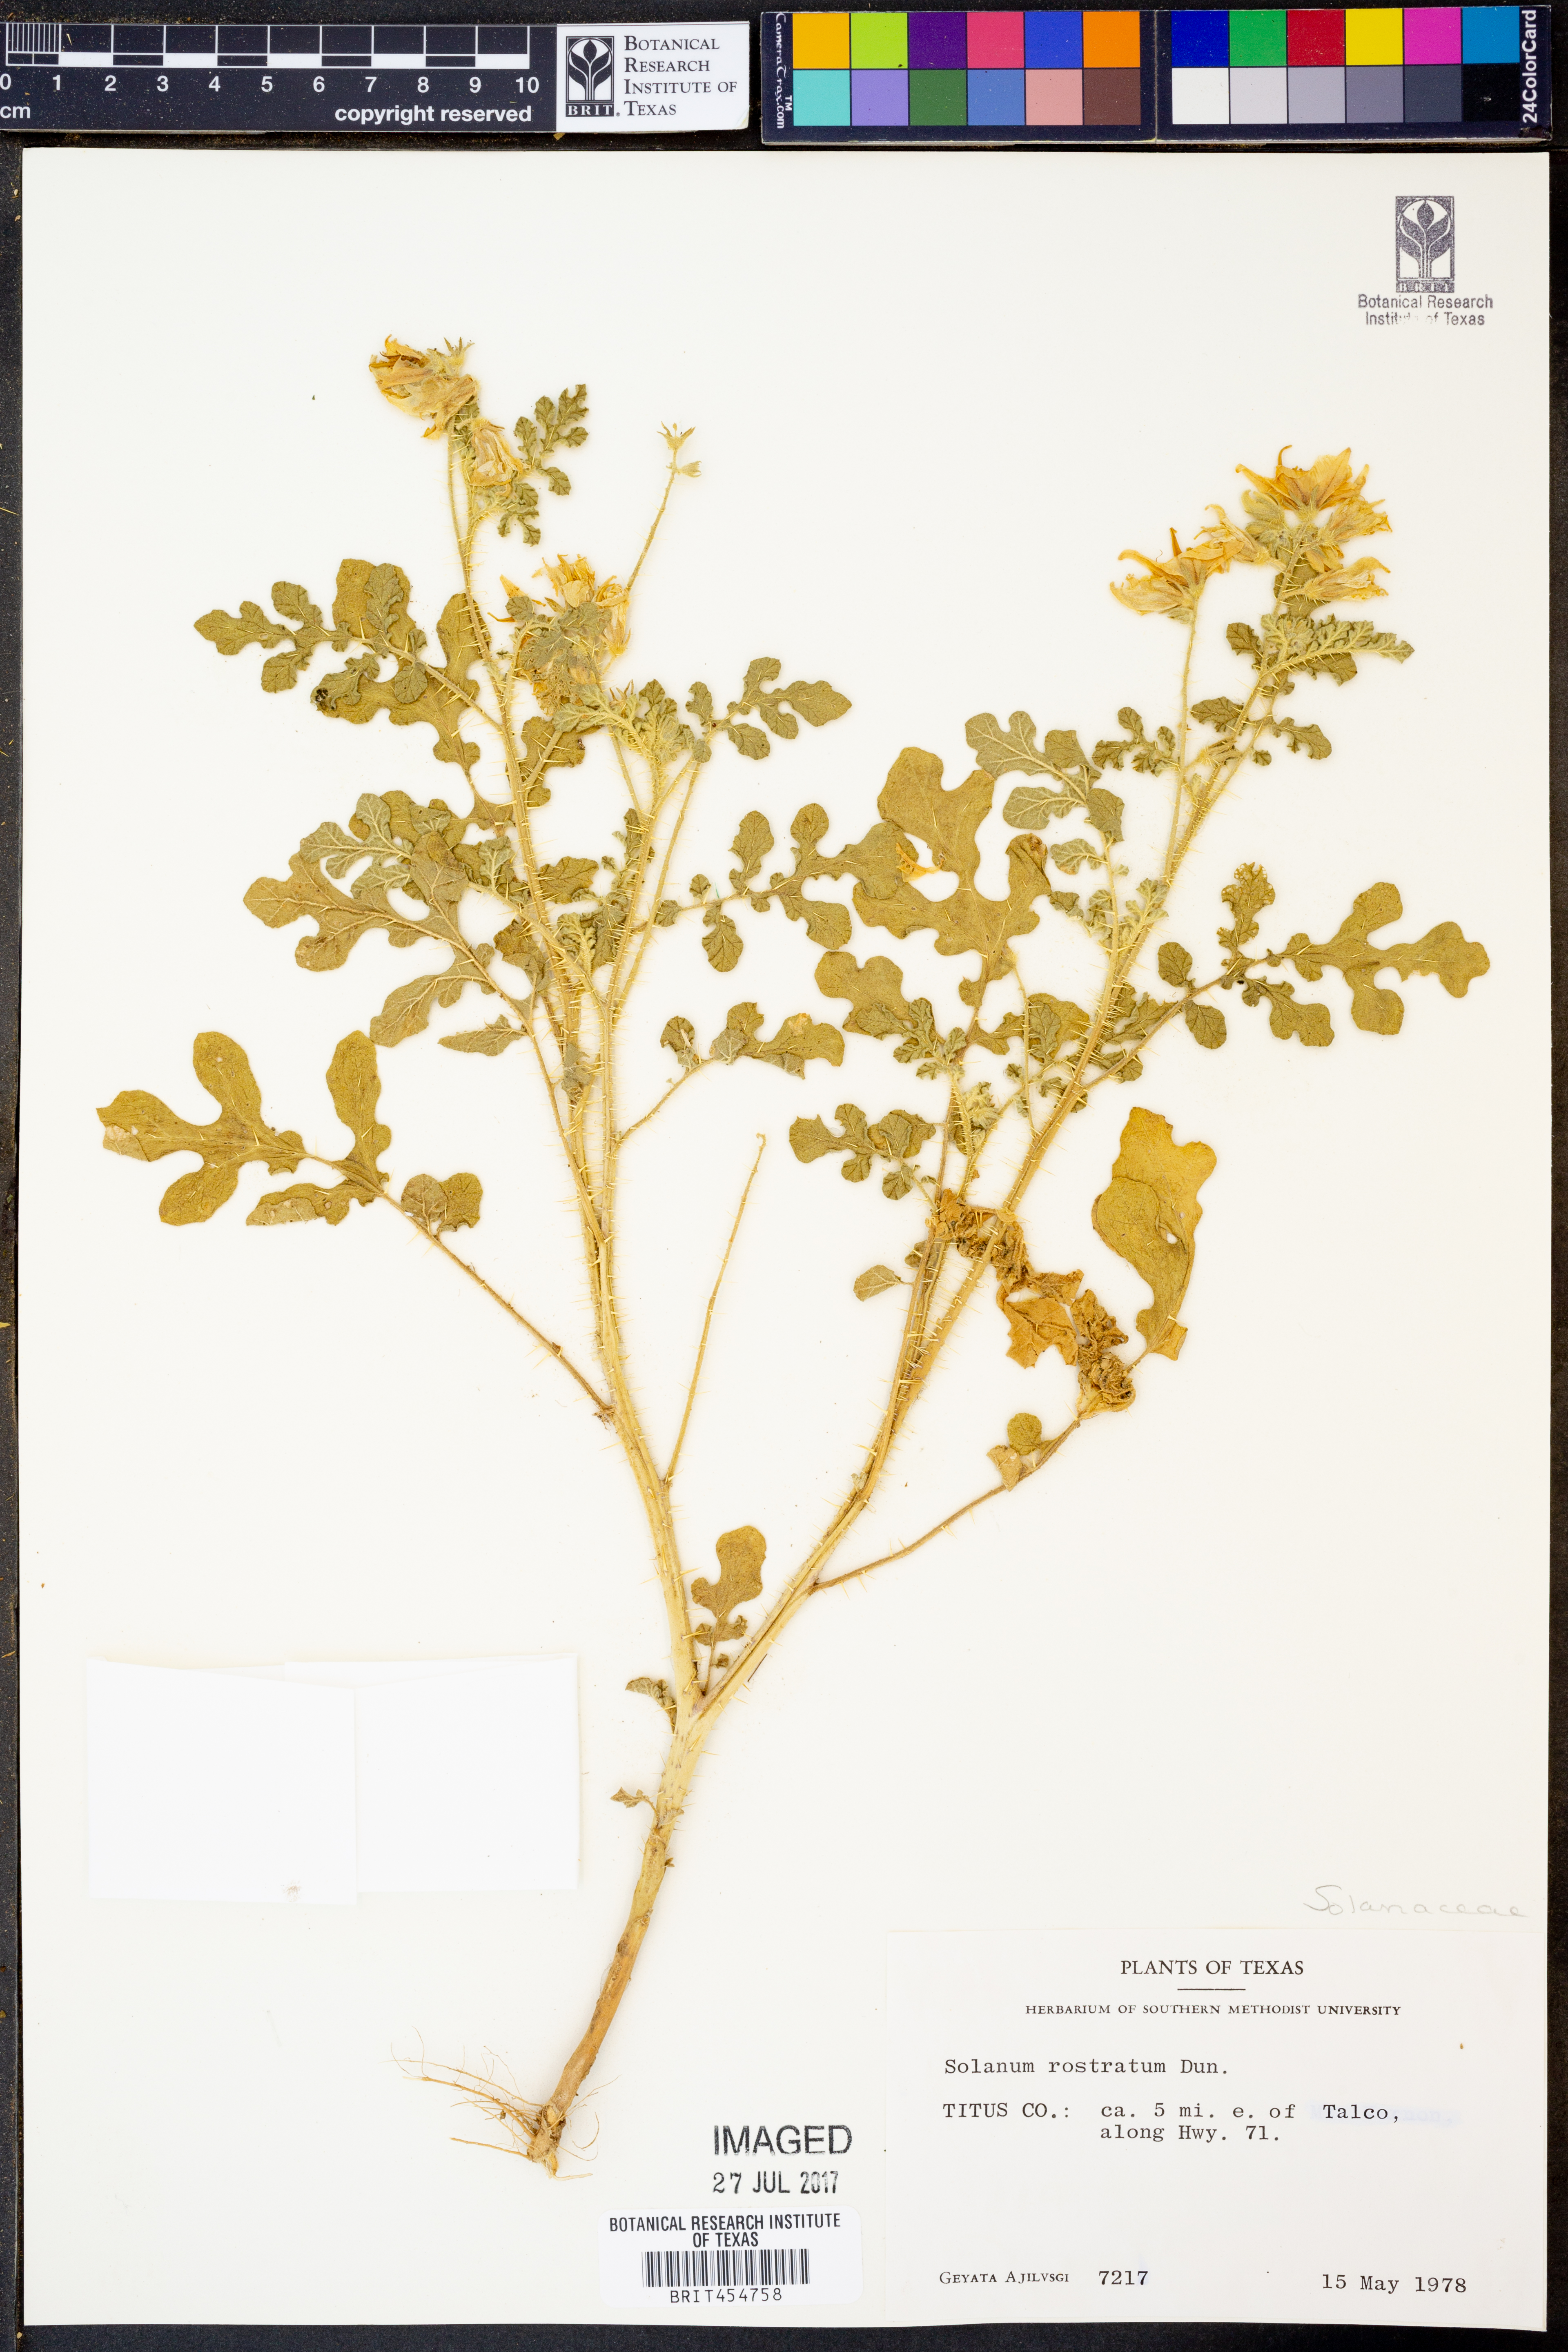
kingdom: Plantae
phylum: Tracheophyta
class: Magnoliopsida
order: Solanales
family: Solanaceae
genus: Solanum
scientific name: Solanum angustifolium
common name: Buffalobur nightshade
